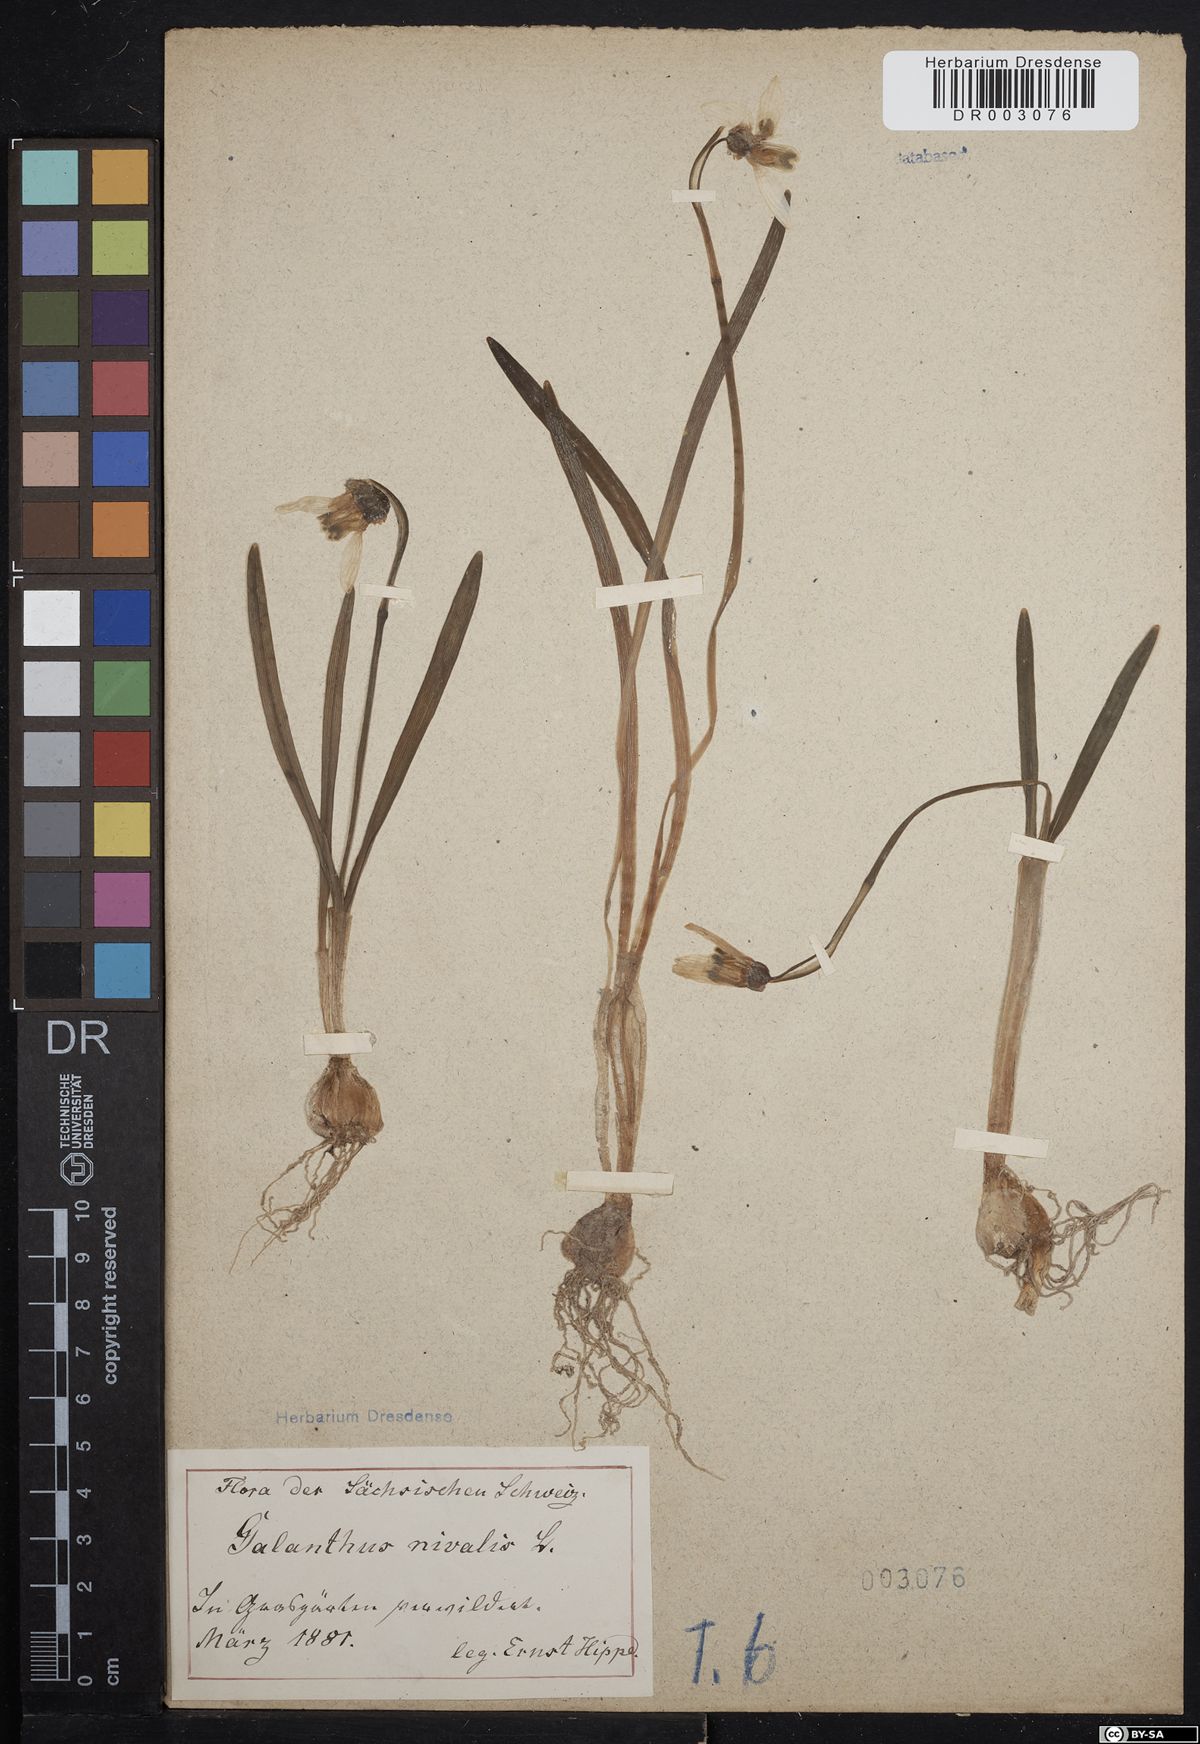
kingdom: Plantae
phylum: Tracheophyta
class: Liliopsida
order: Asparagales
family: Amaryllidaceae
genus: Galanthus
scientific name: Galanthus nivalis
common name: Snowdrop
